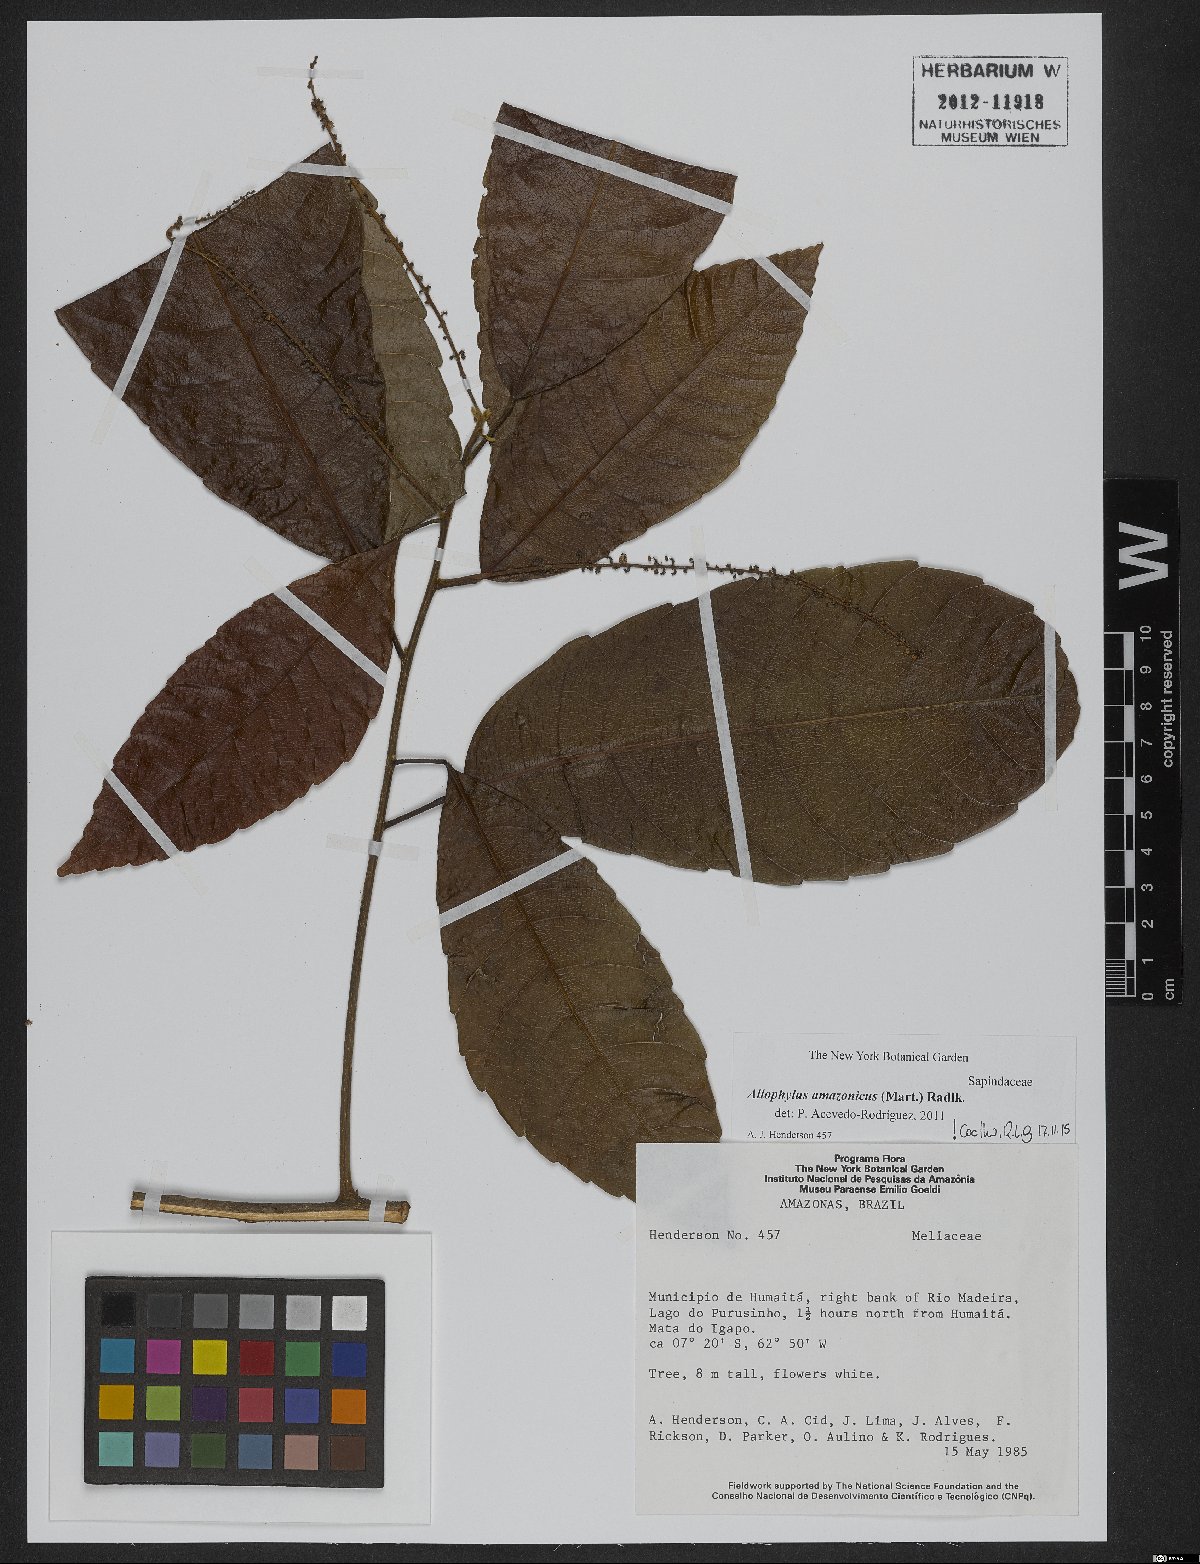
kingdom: Plantae
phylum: Tracheophyta
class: Magnoliopsida
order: Sapindales
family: Sapindaceae
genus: Allophylus
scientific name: Allophylus amazonicus
